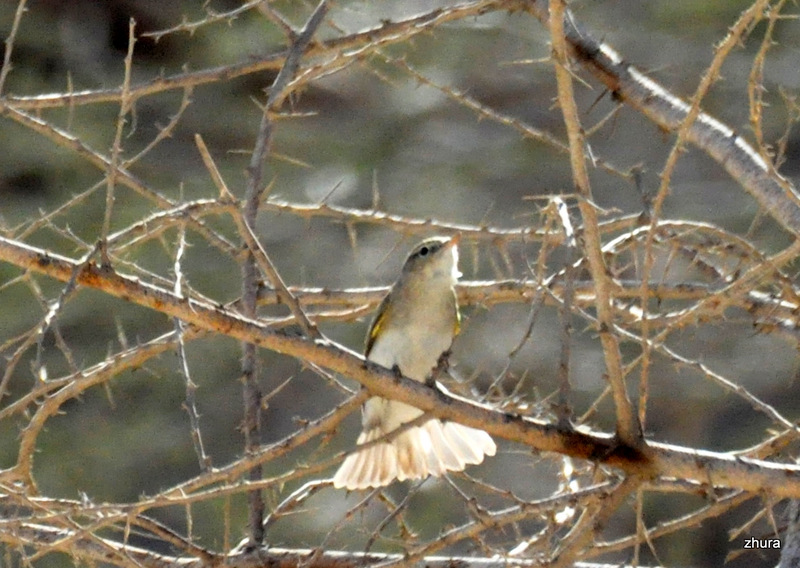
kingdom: Animalia
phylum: Chordata
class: Aves
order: Passeriformes
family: Phylloscopidae
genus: Phylloscopus
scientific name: Phylloscopus bonelli
